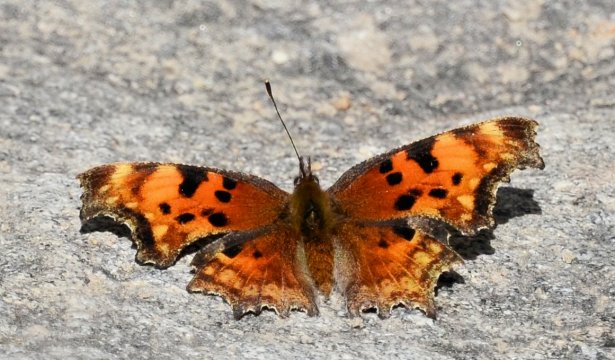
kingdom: Animalia
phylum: Arthropoda
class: Insecta
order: Lepidoptera
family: Nymphalidae
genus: Polygonia
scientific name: Polygonia faunus
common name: Green Comma
